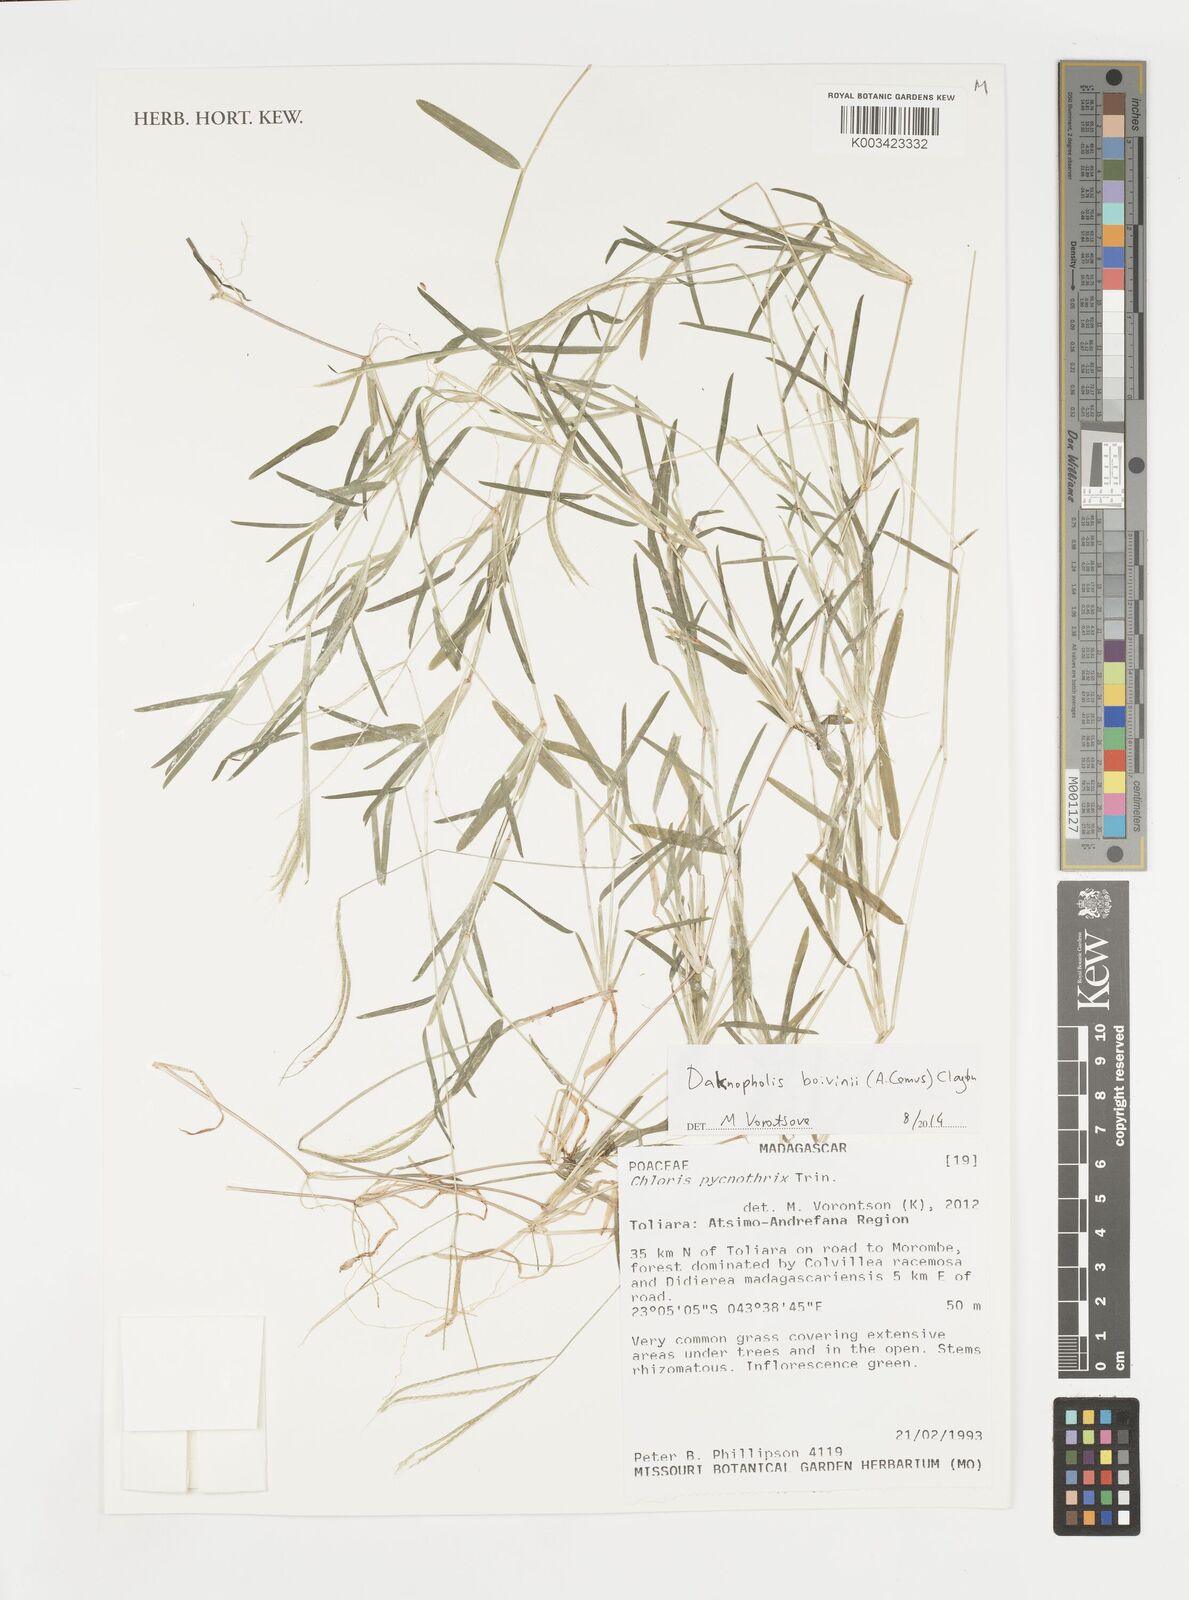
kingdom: Plantae
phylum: Tracheophyta
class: Liliopsida
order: Poales
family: Poaceae
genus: Daknopholis
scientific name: Daknopholis boivinii
